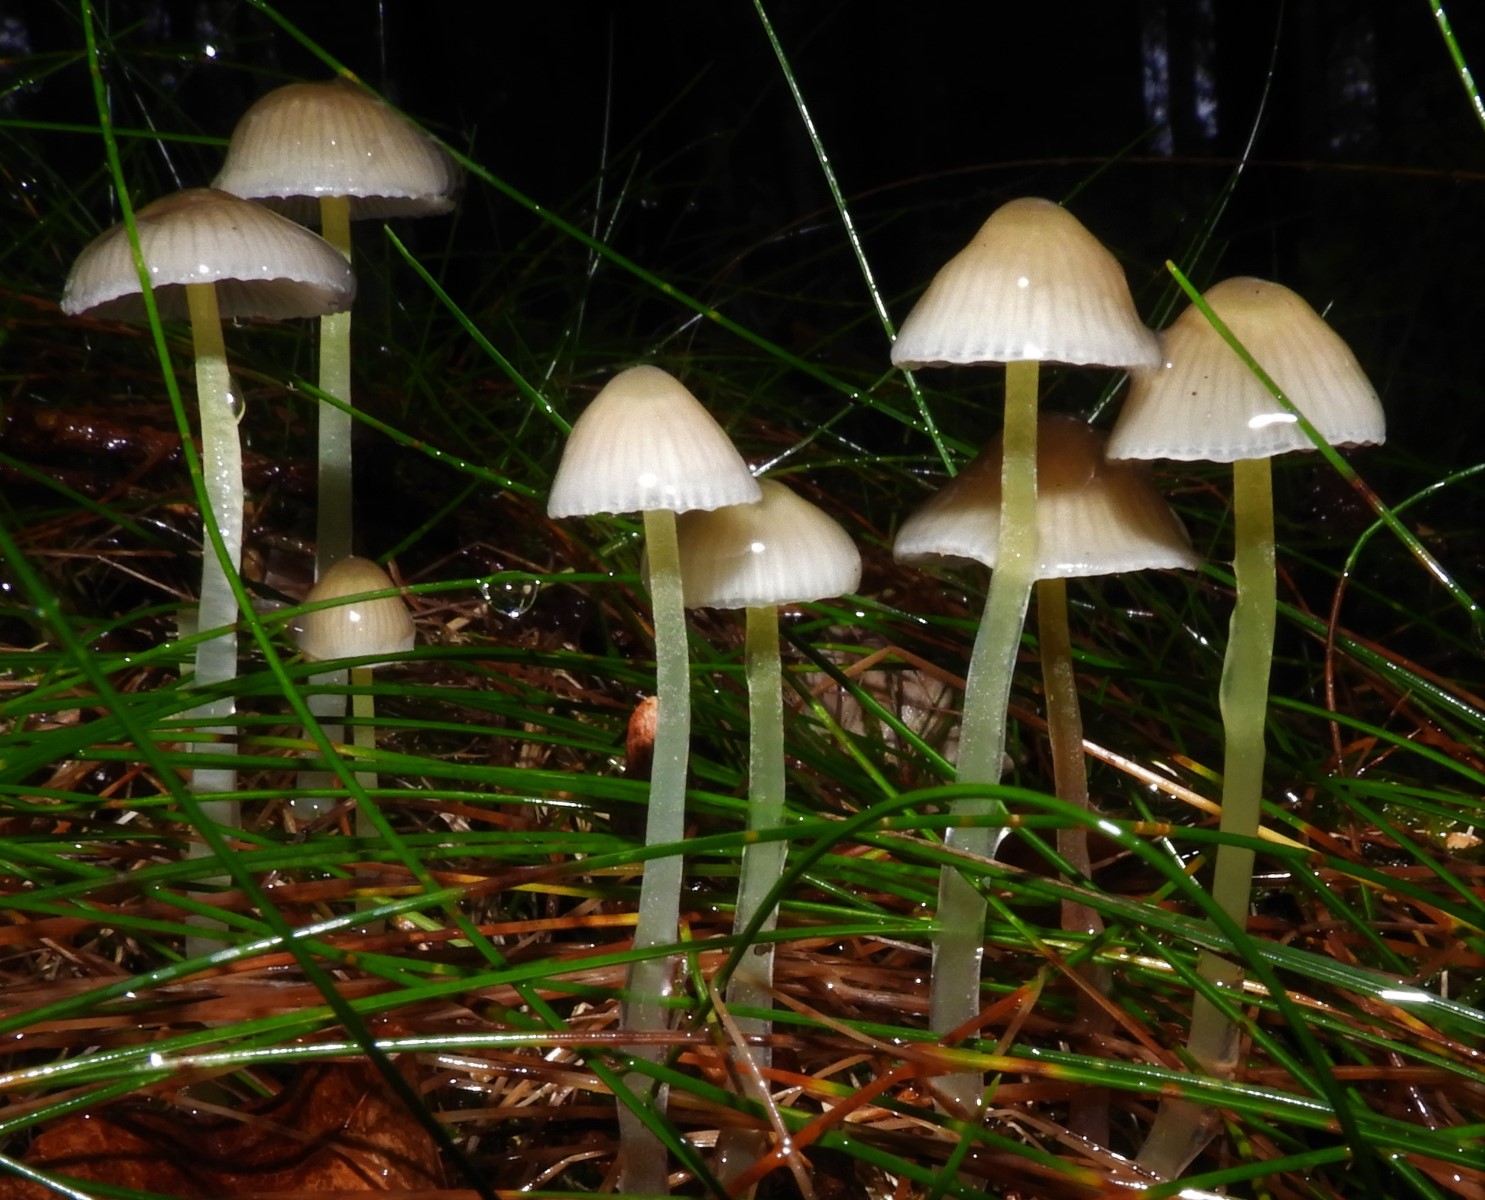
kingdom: Fungi
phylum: Basidiomycota
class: Agaricomycetes
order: Agaricales
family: Mycenaceae
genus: Mycena
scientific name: Mycena epipterygia
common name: Yellowleg bonnet
